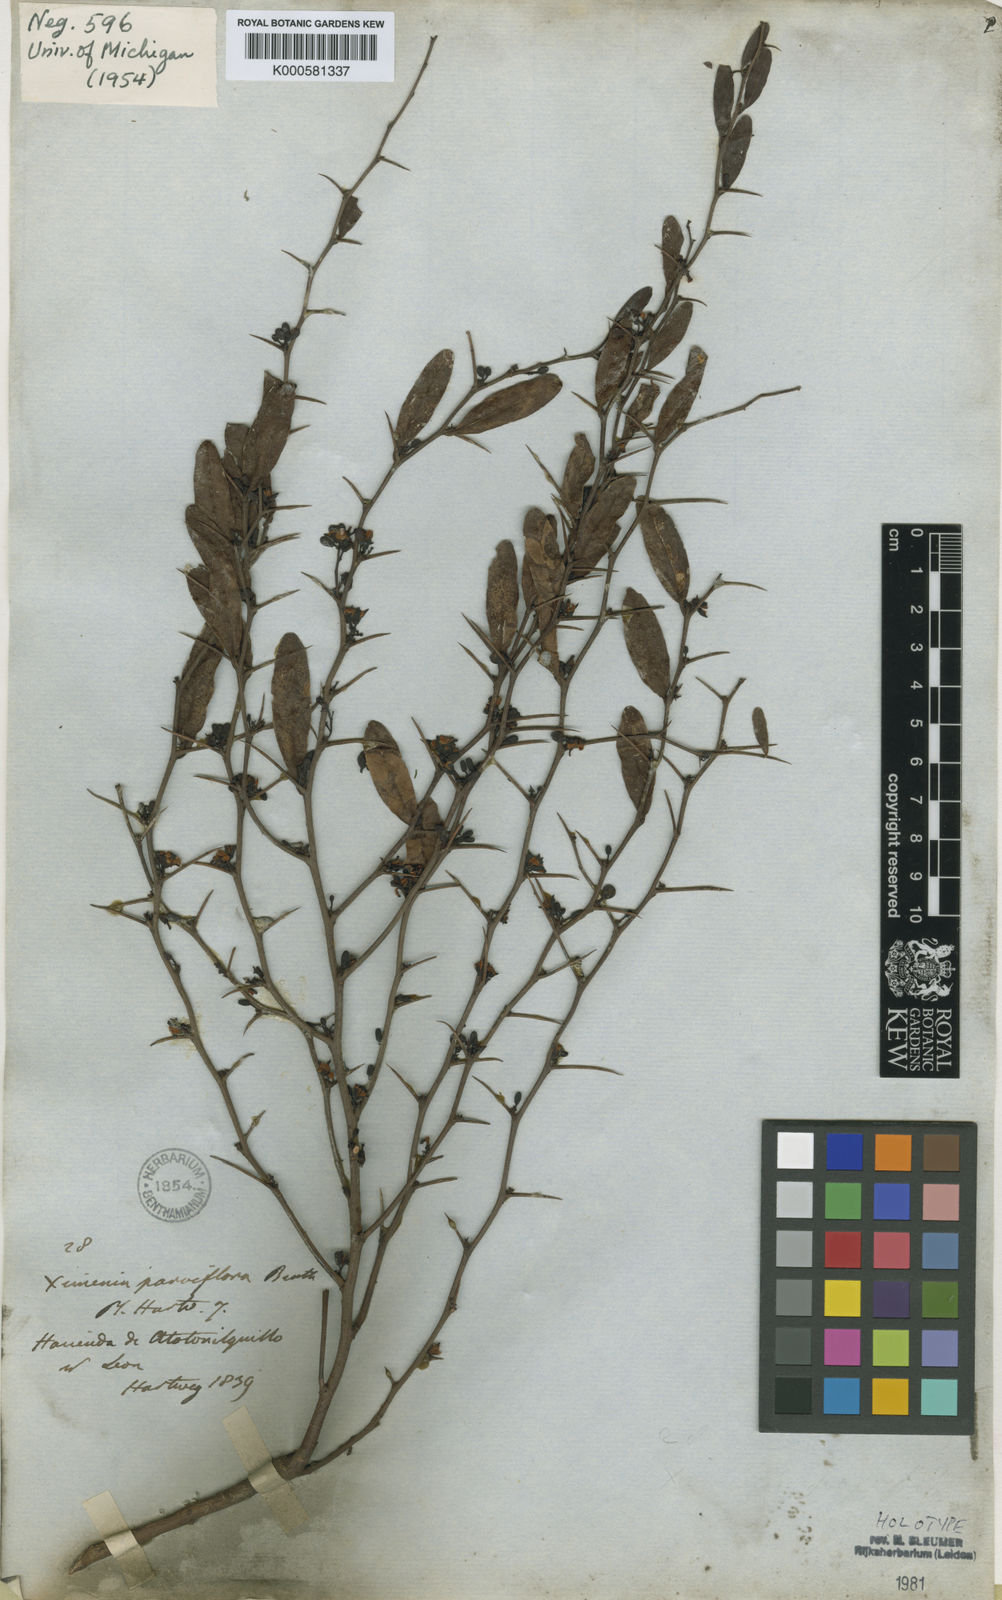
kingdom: Plantae
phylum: Tracheophyta
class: Magnoliopsida
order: Santalales
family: Ximeniaceae
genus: Ximenia
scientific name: Ximenia parviflora
